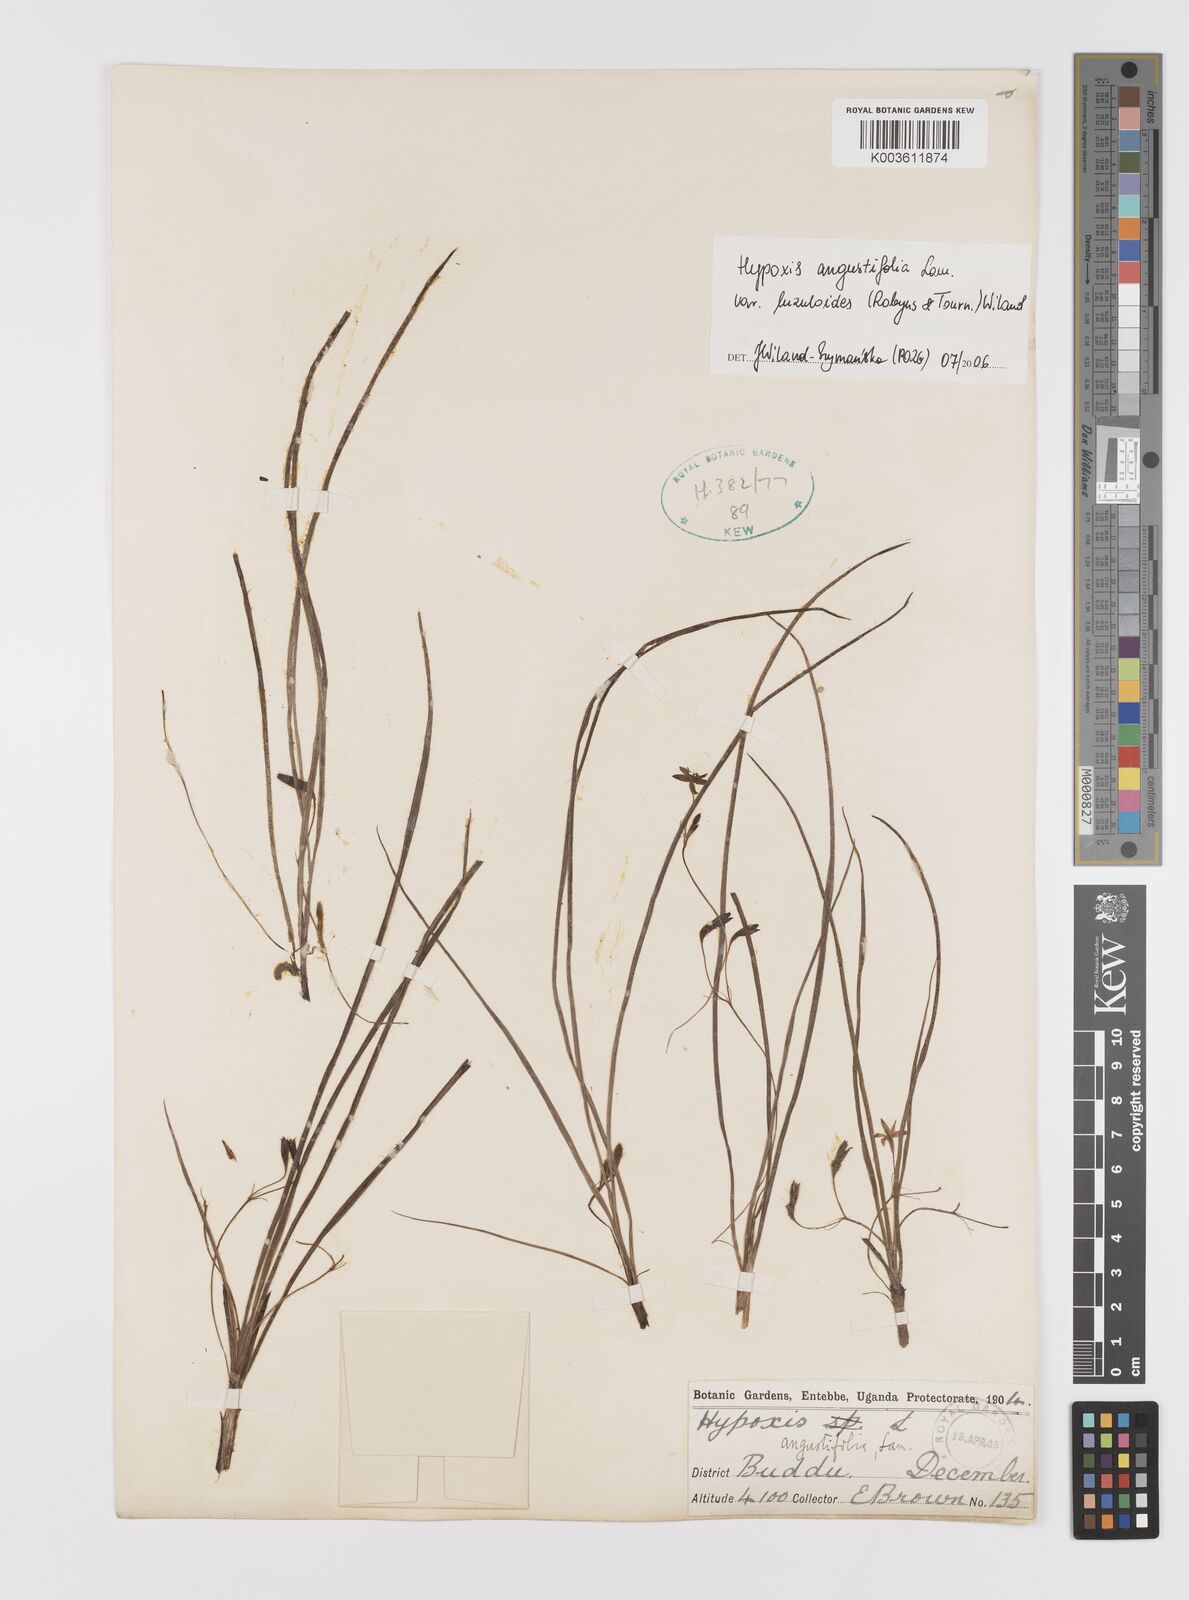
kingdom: Plantae
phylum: Tracheophyta
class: Liliopsida
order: Asparagales
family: Hypoxidaceae
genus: Hypoxis
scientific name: Hypoxis angustifolia
